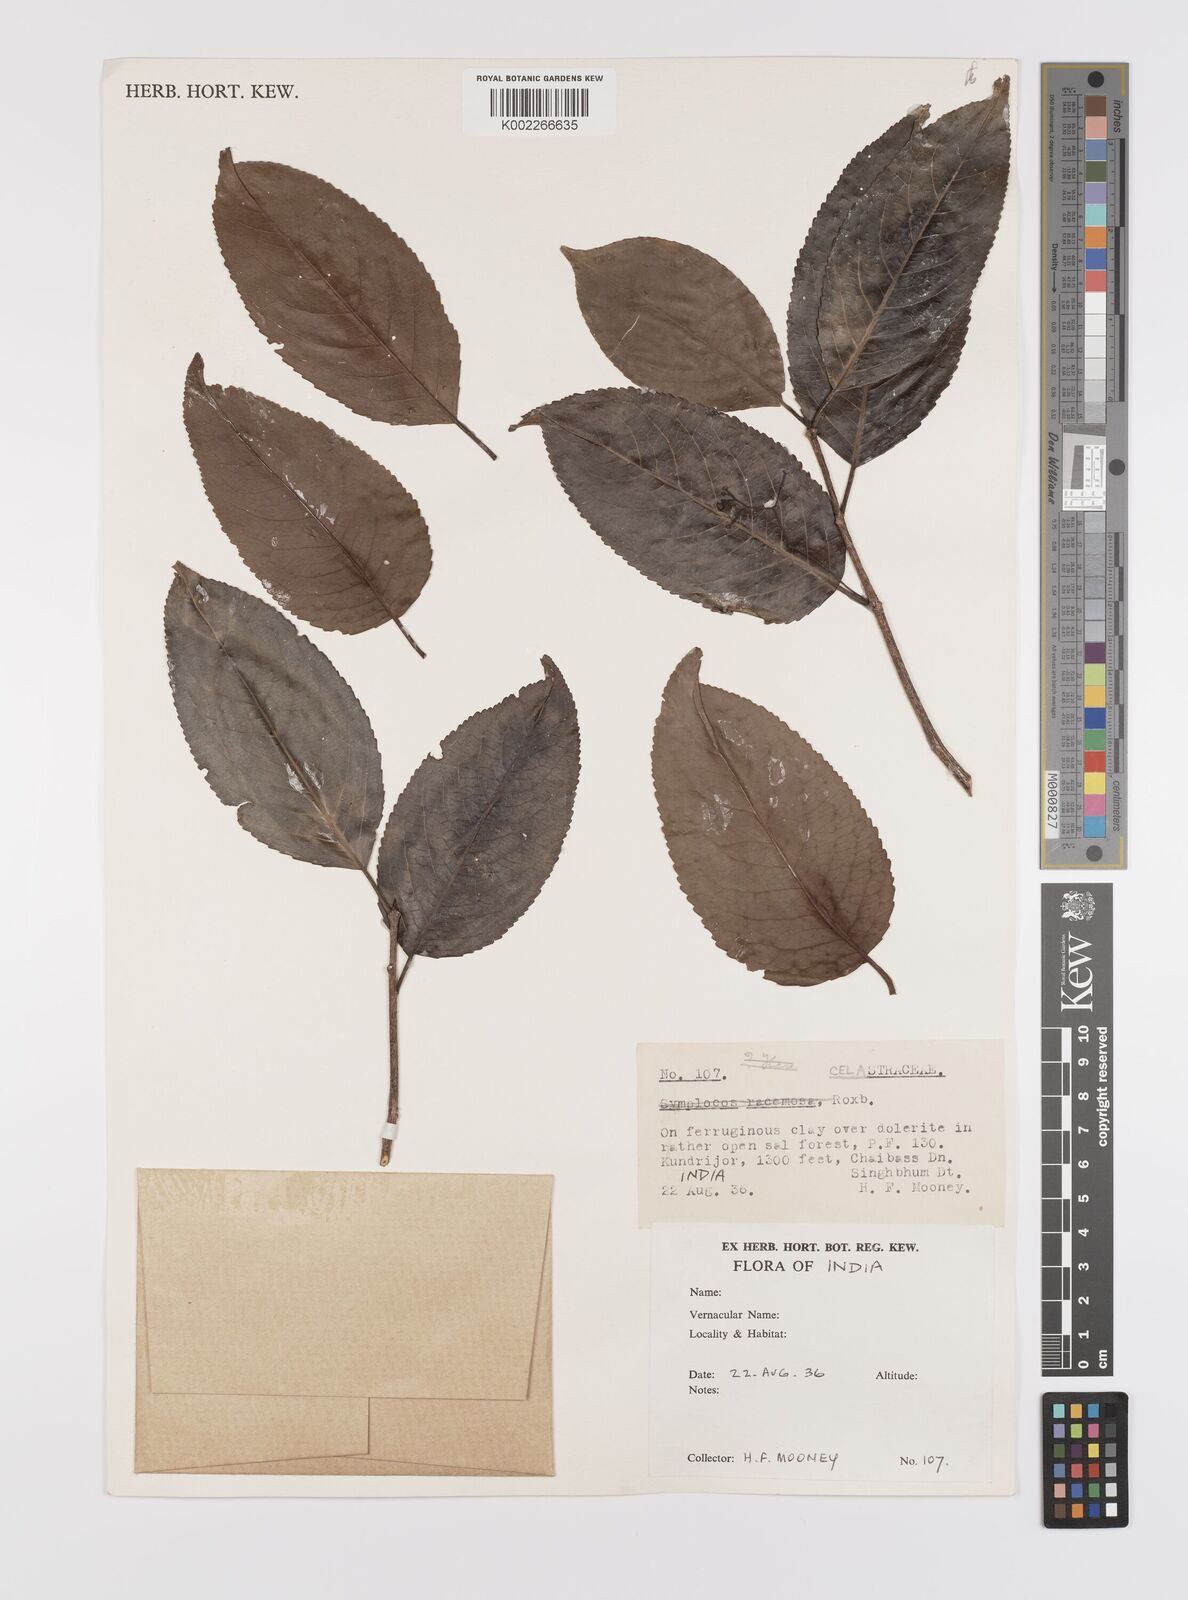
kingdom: Plantae
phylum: Tracheophyta
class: Magnoliopsida
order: Celastrales
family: Celastraceae
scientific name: Celastraceae
